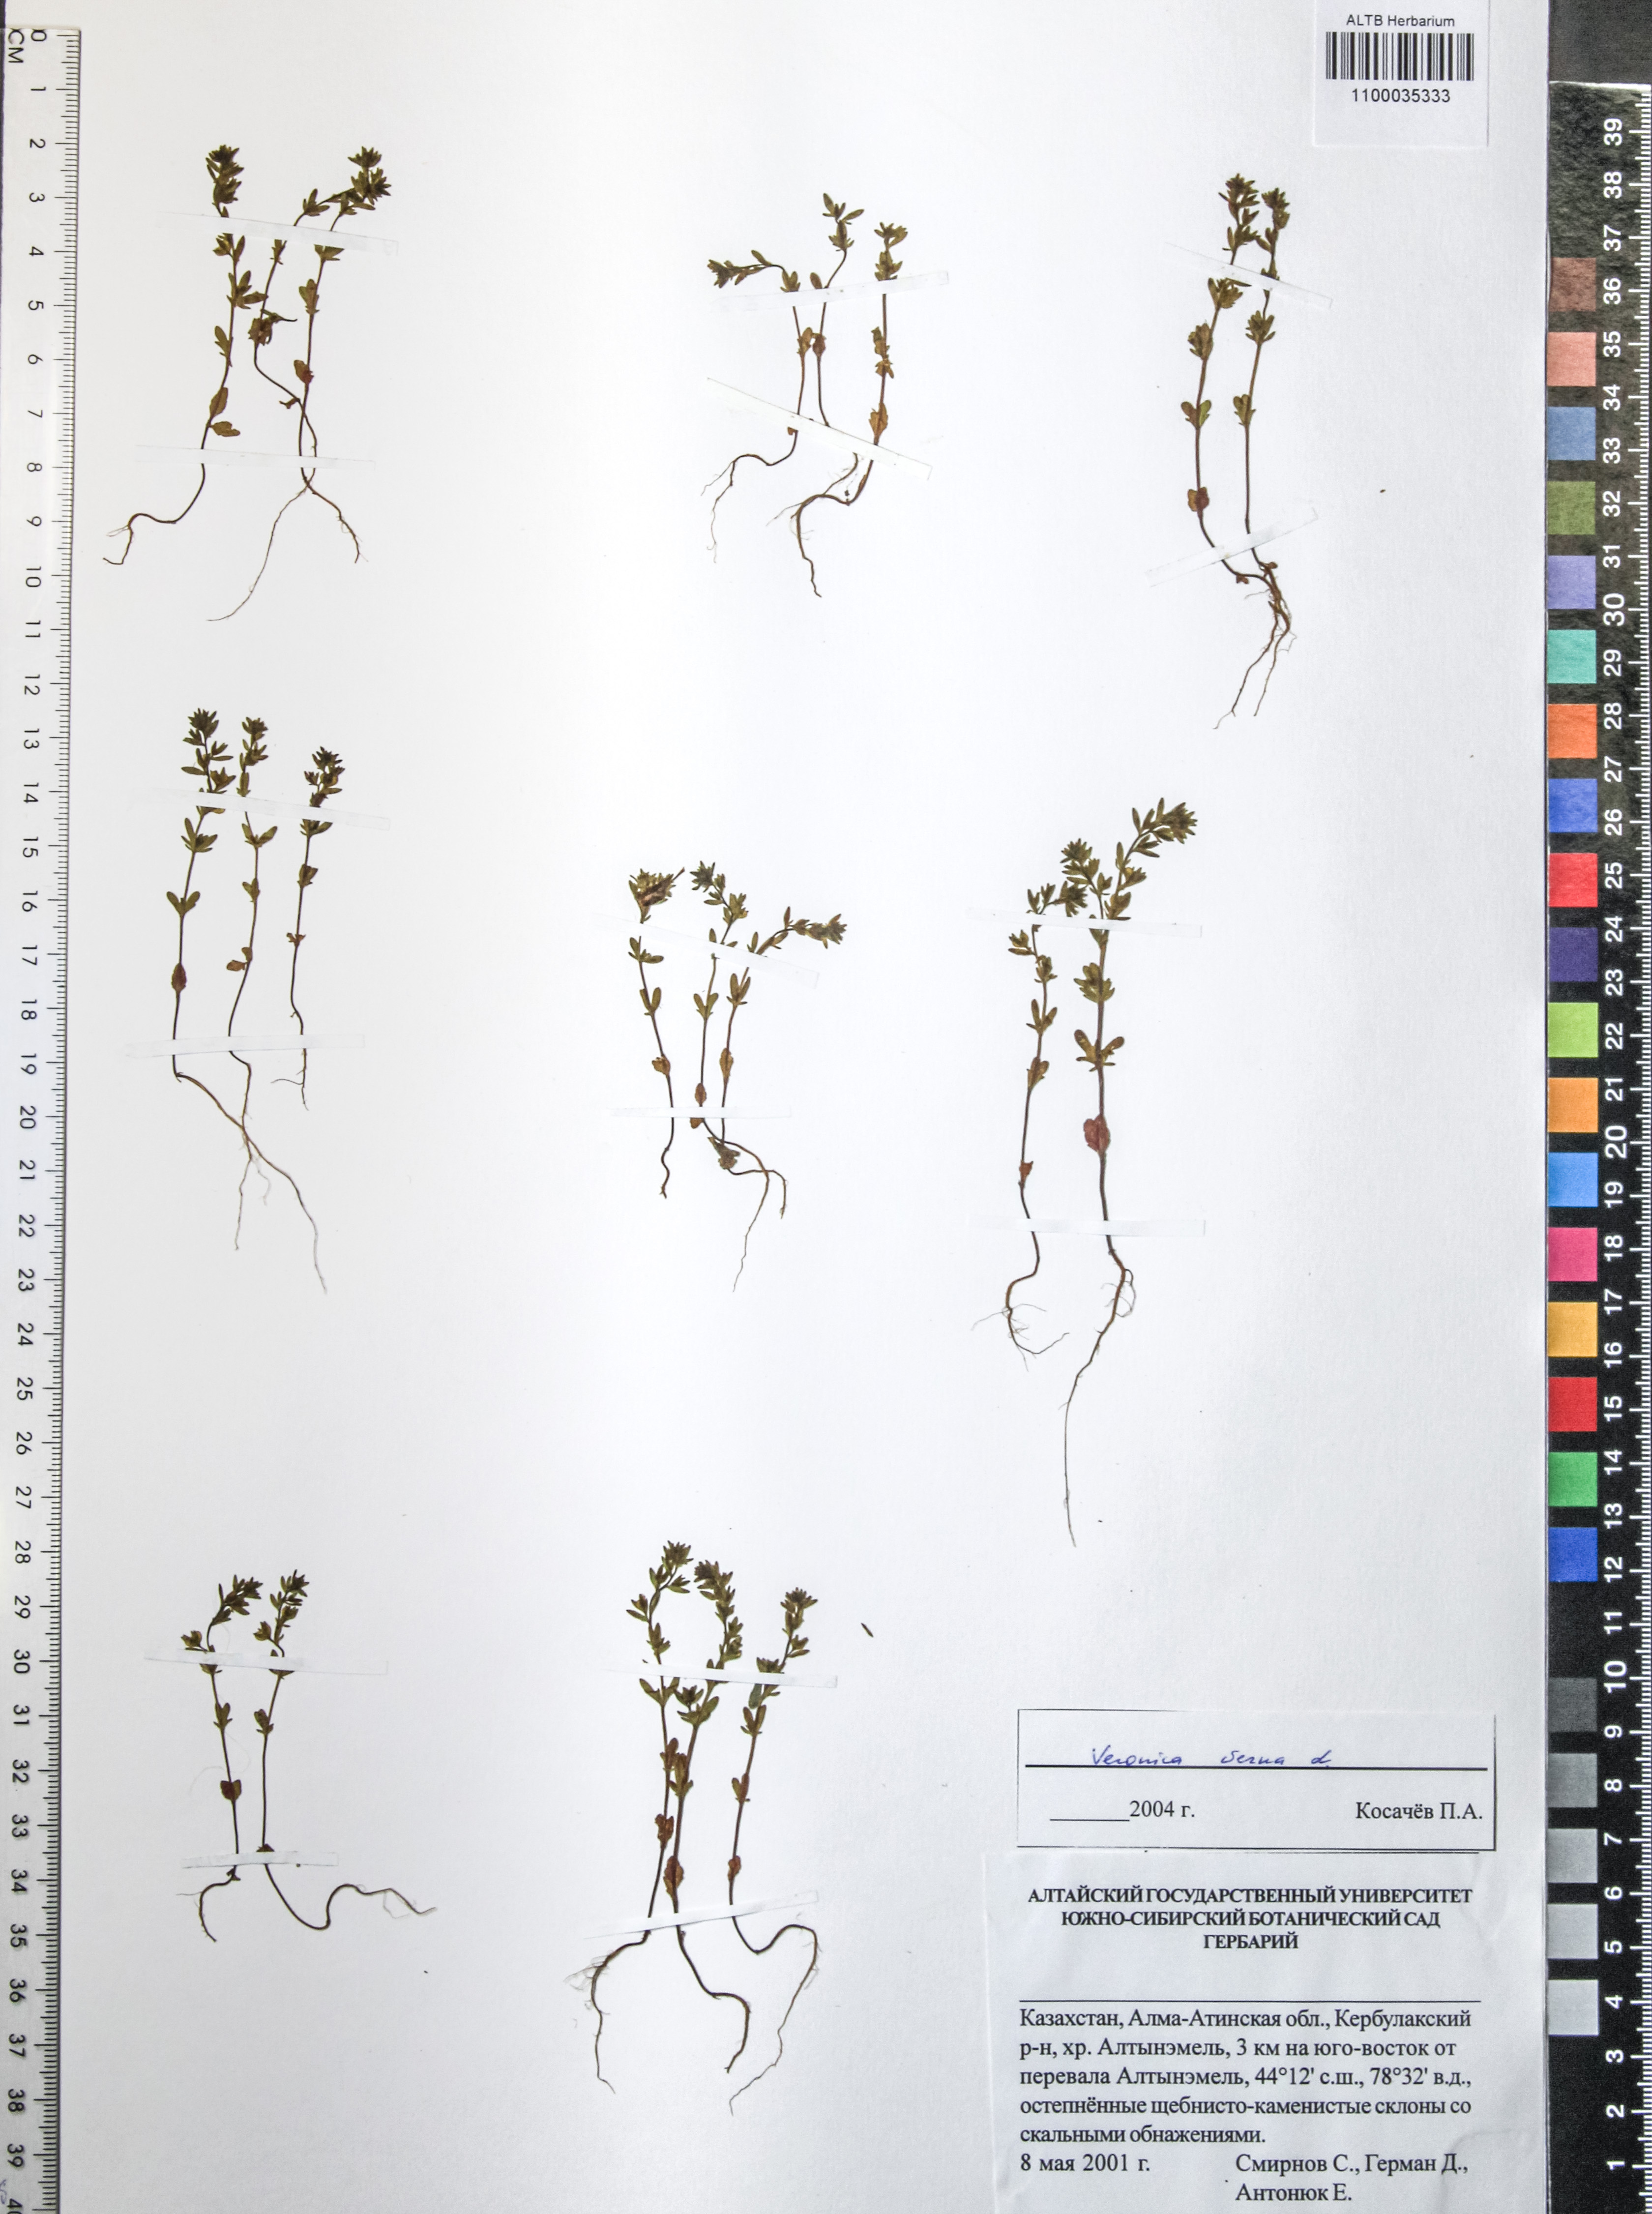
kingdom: Plantae
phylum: Tracheophyta
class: Magnoliopsida
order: Lamiales
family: Plantaginaceae
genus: Veronica
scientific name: Veronica verna
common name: Spring speedwell
